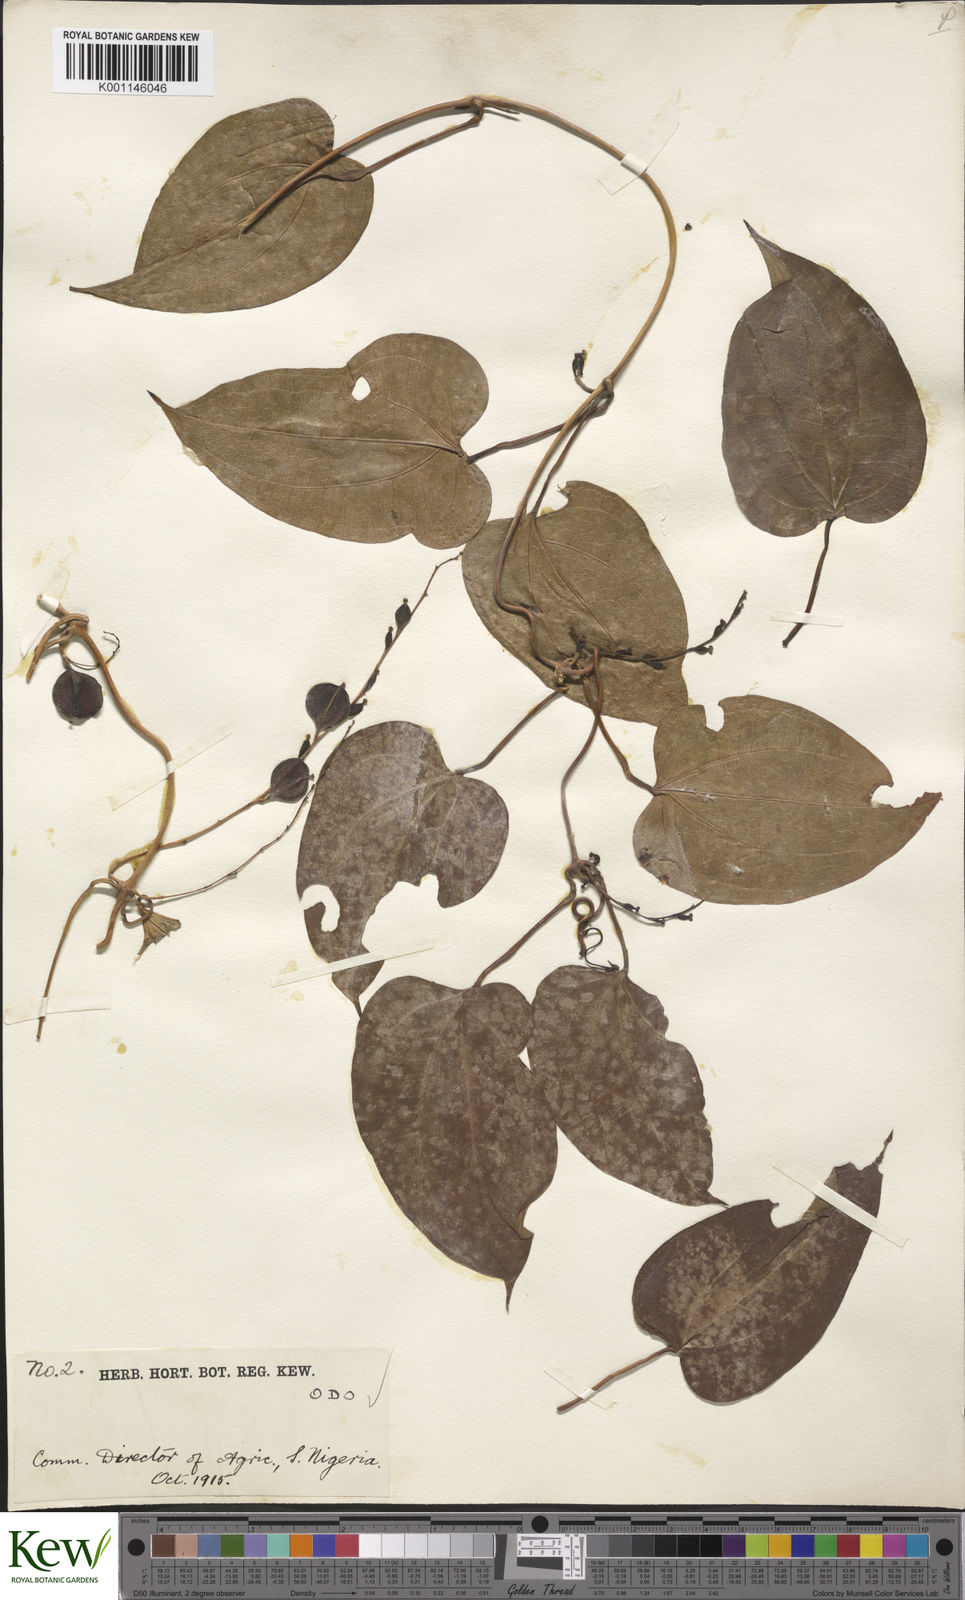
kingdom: Plantae
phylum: Tracheophyta
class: Liliopsida
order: Dioscoreales
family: Dioscoreaceae
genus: Dioscorea
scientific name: Dioscorea baya
